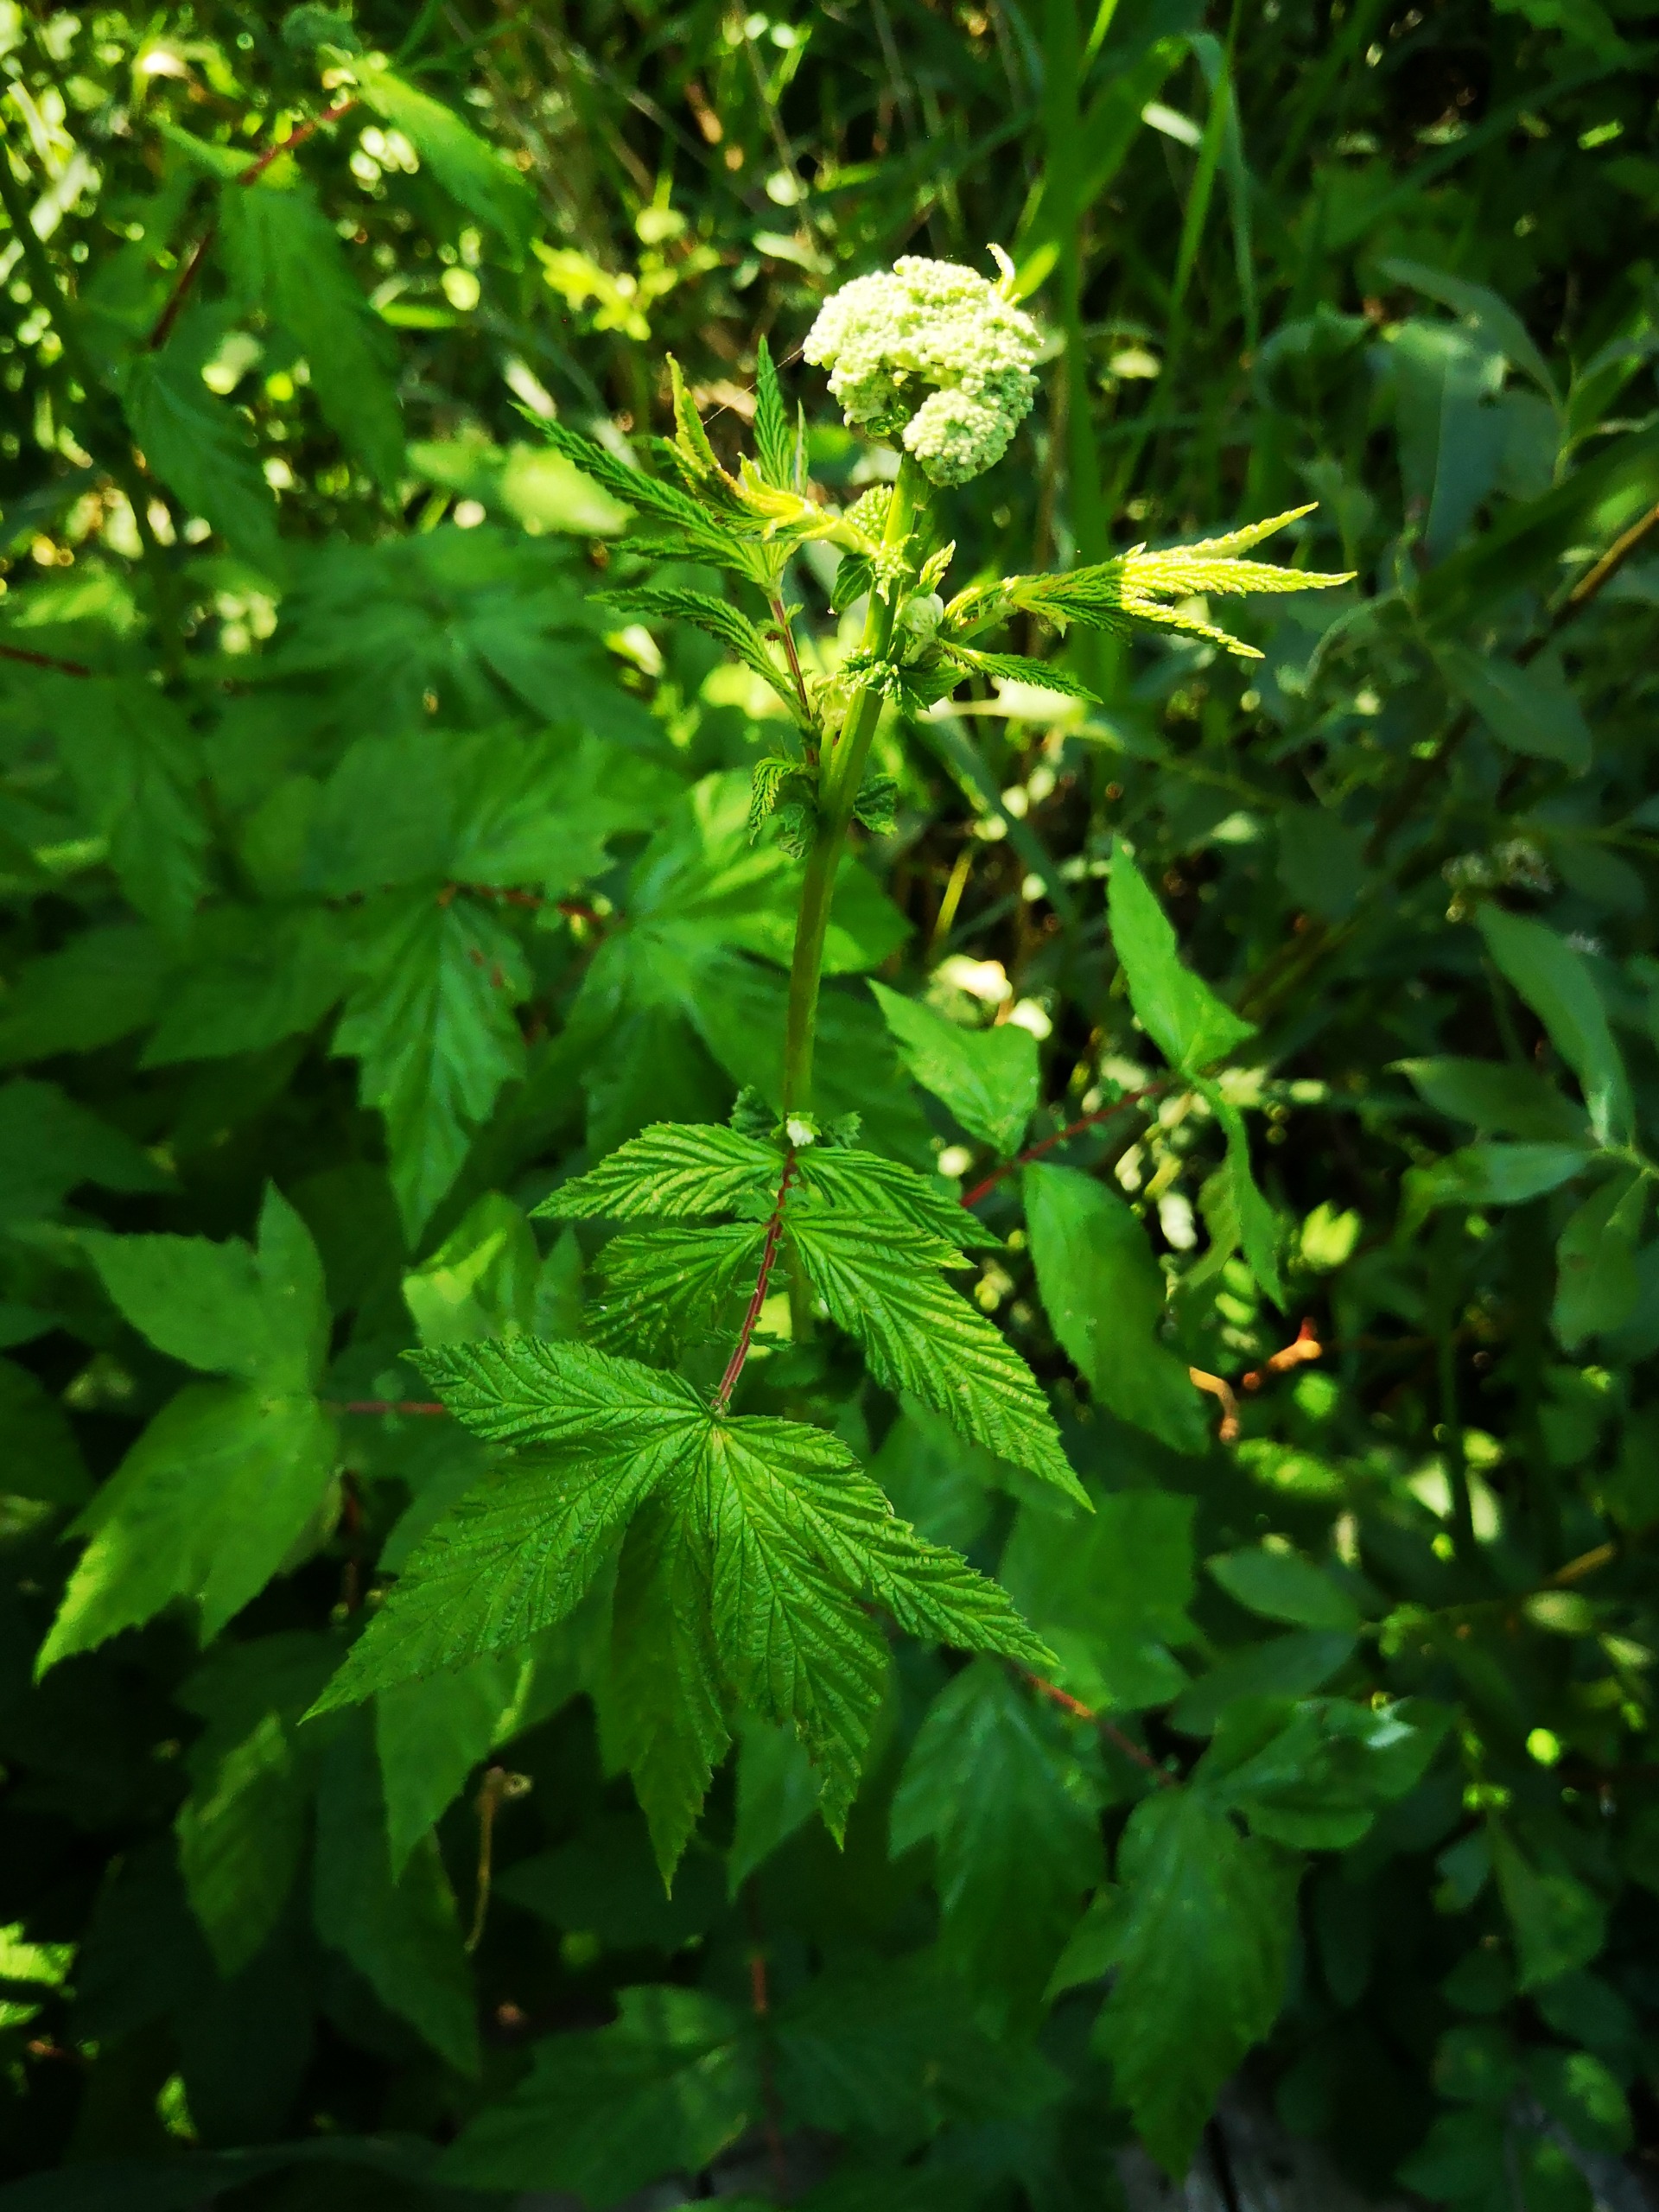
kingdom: Plantae
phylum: Tracheophyta
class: Magnoliopsida
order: Rosales
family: Rosaceae
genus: Filipendula
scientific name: Filipendula ulmaria
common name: Almindelig mjødurt
